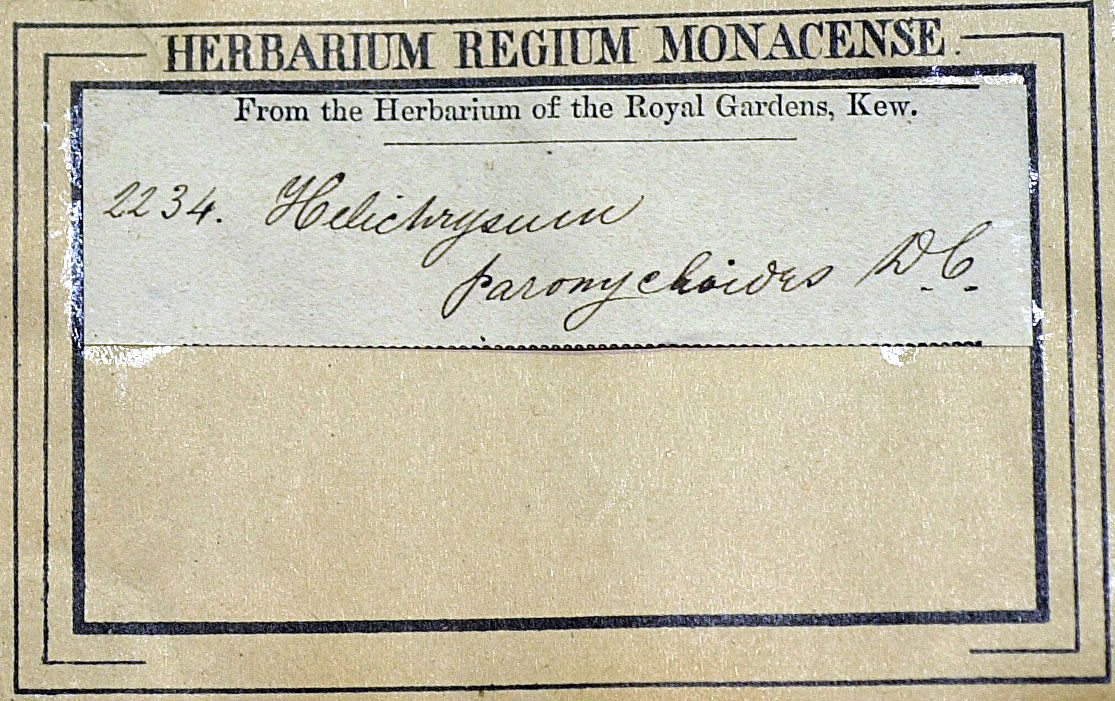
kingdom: Plantae
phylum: Tracheophyta
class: Magnoliopsida
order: Asterales
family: Asteraceae
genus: Helichrysum
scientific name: Helichrysum paronychioides
